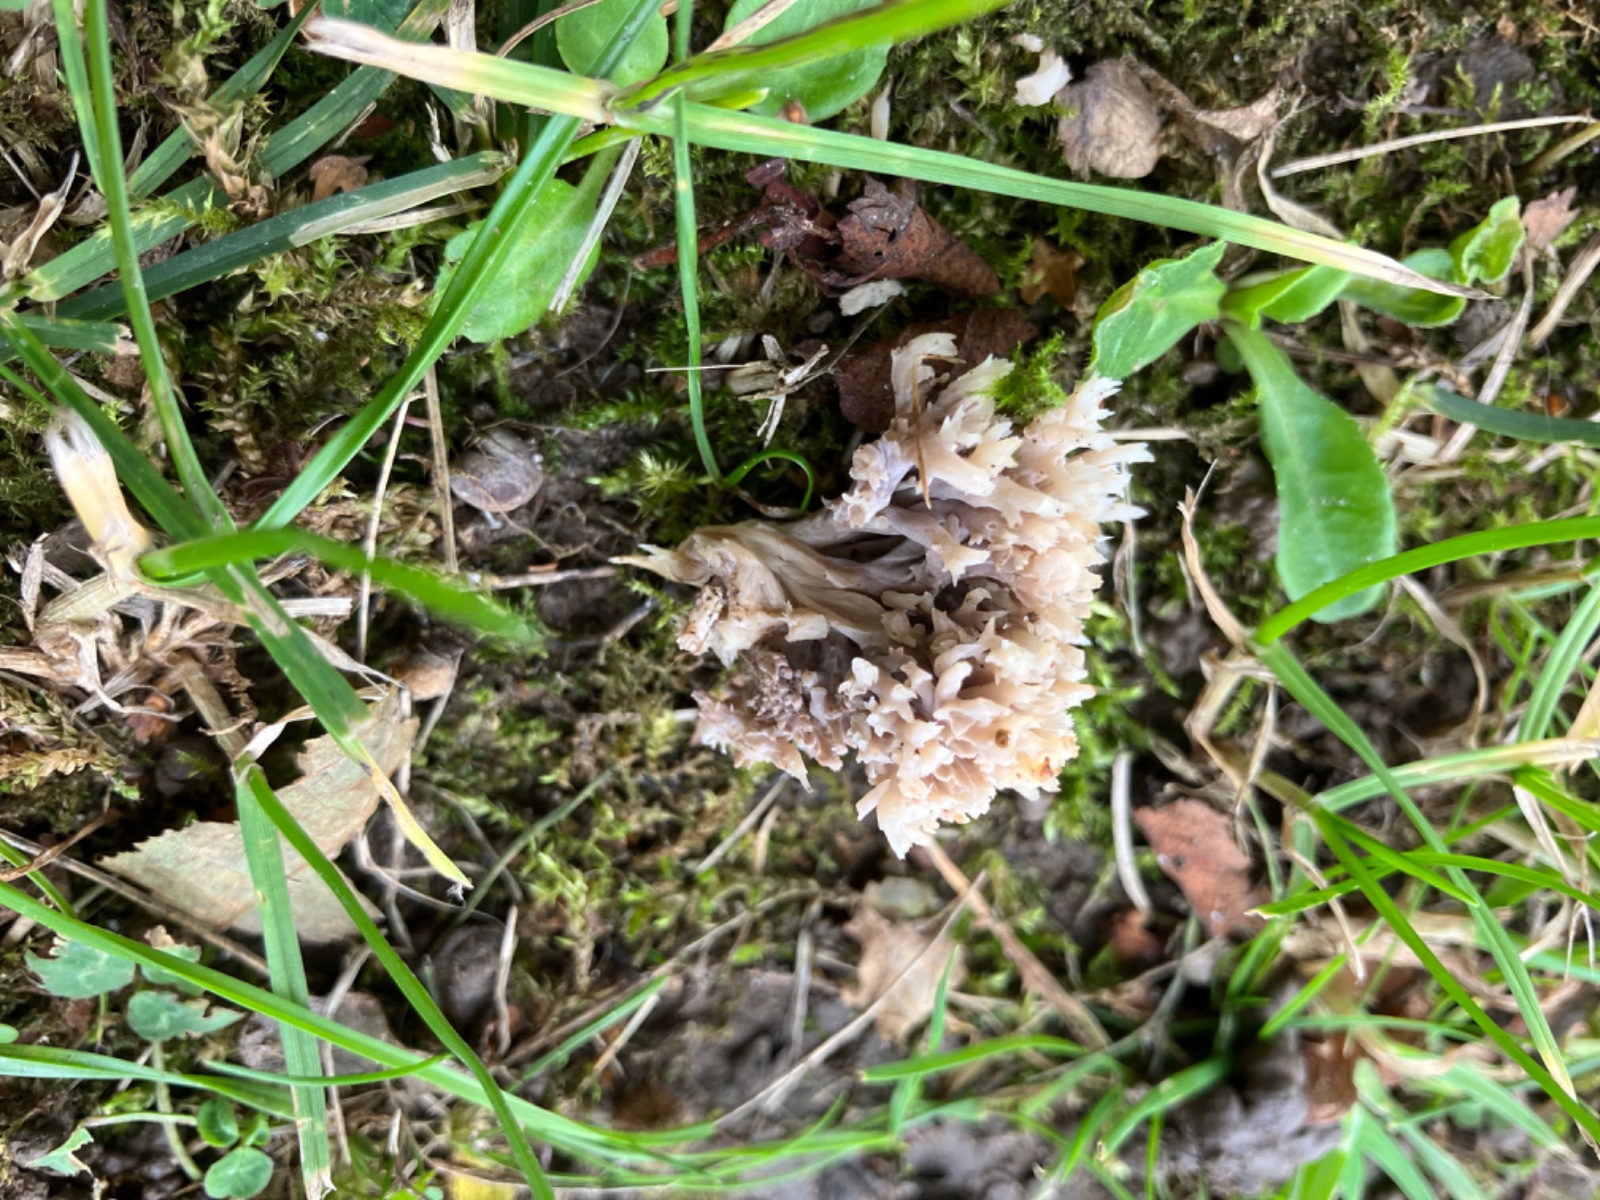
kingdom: Fungi
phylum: Basidiomycota
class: Agaricomycetes
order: Cantharellales
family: Hydnaceae
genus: Clavulina
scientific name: Clavulina
